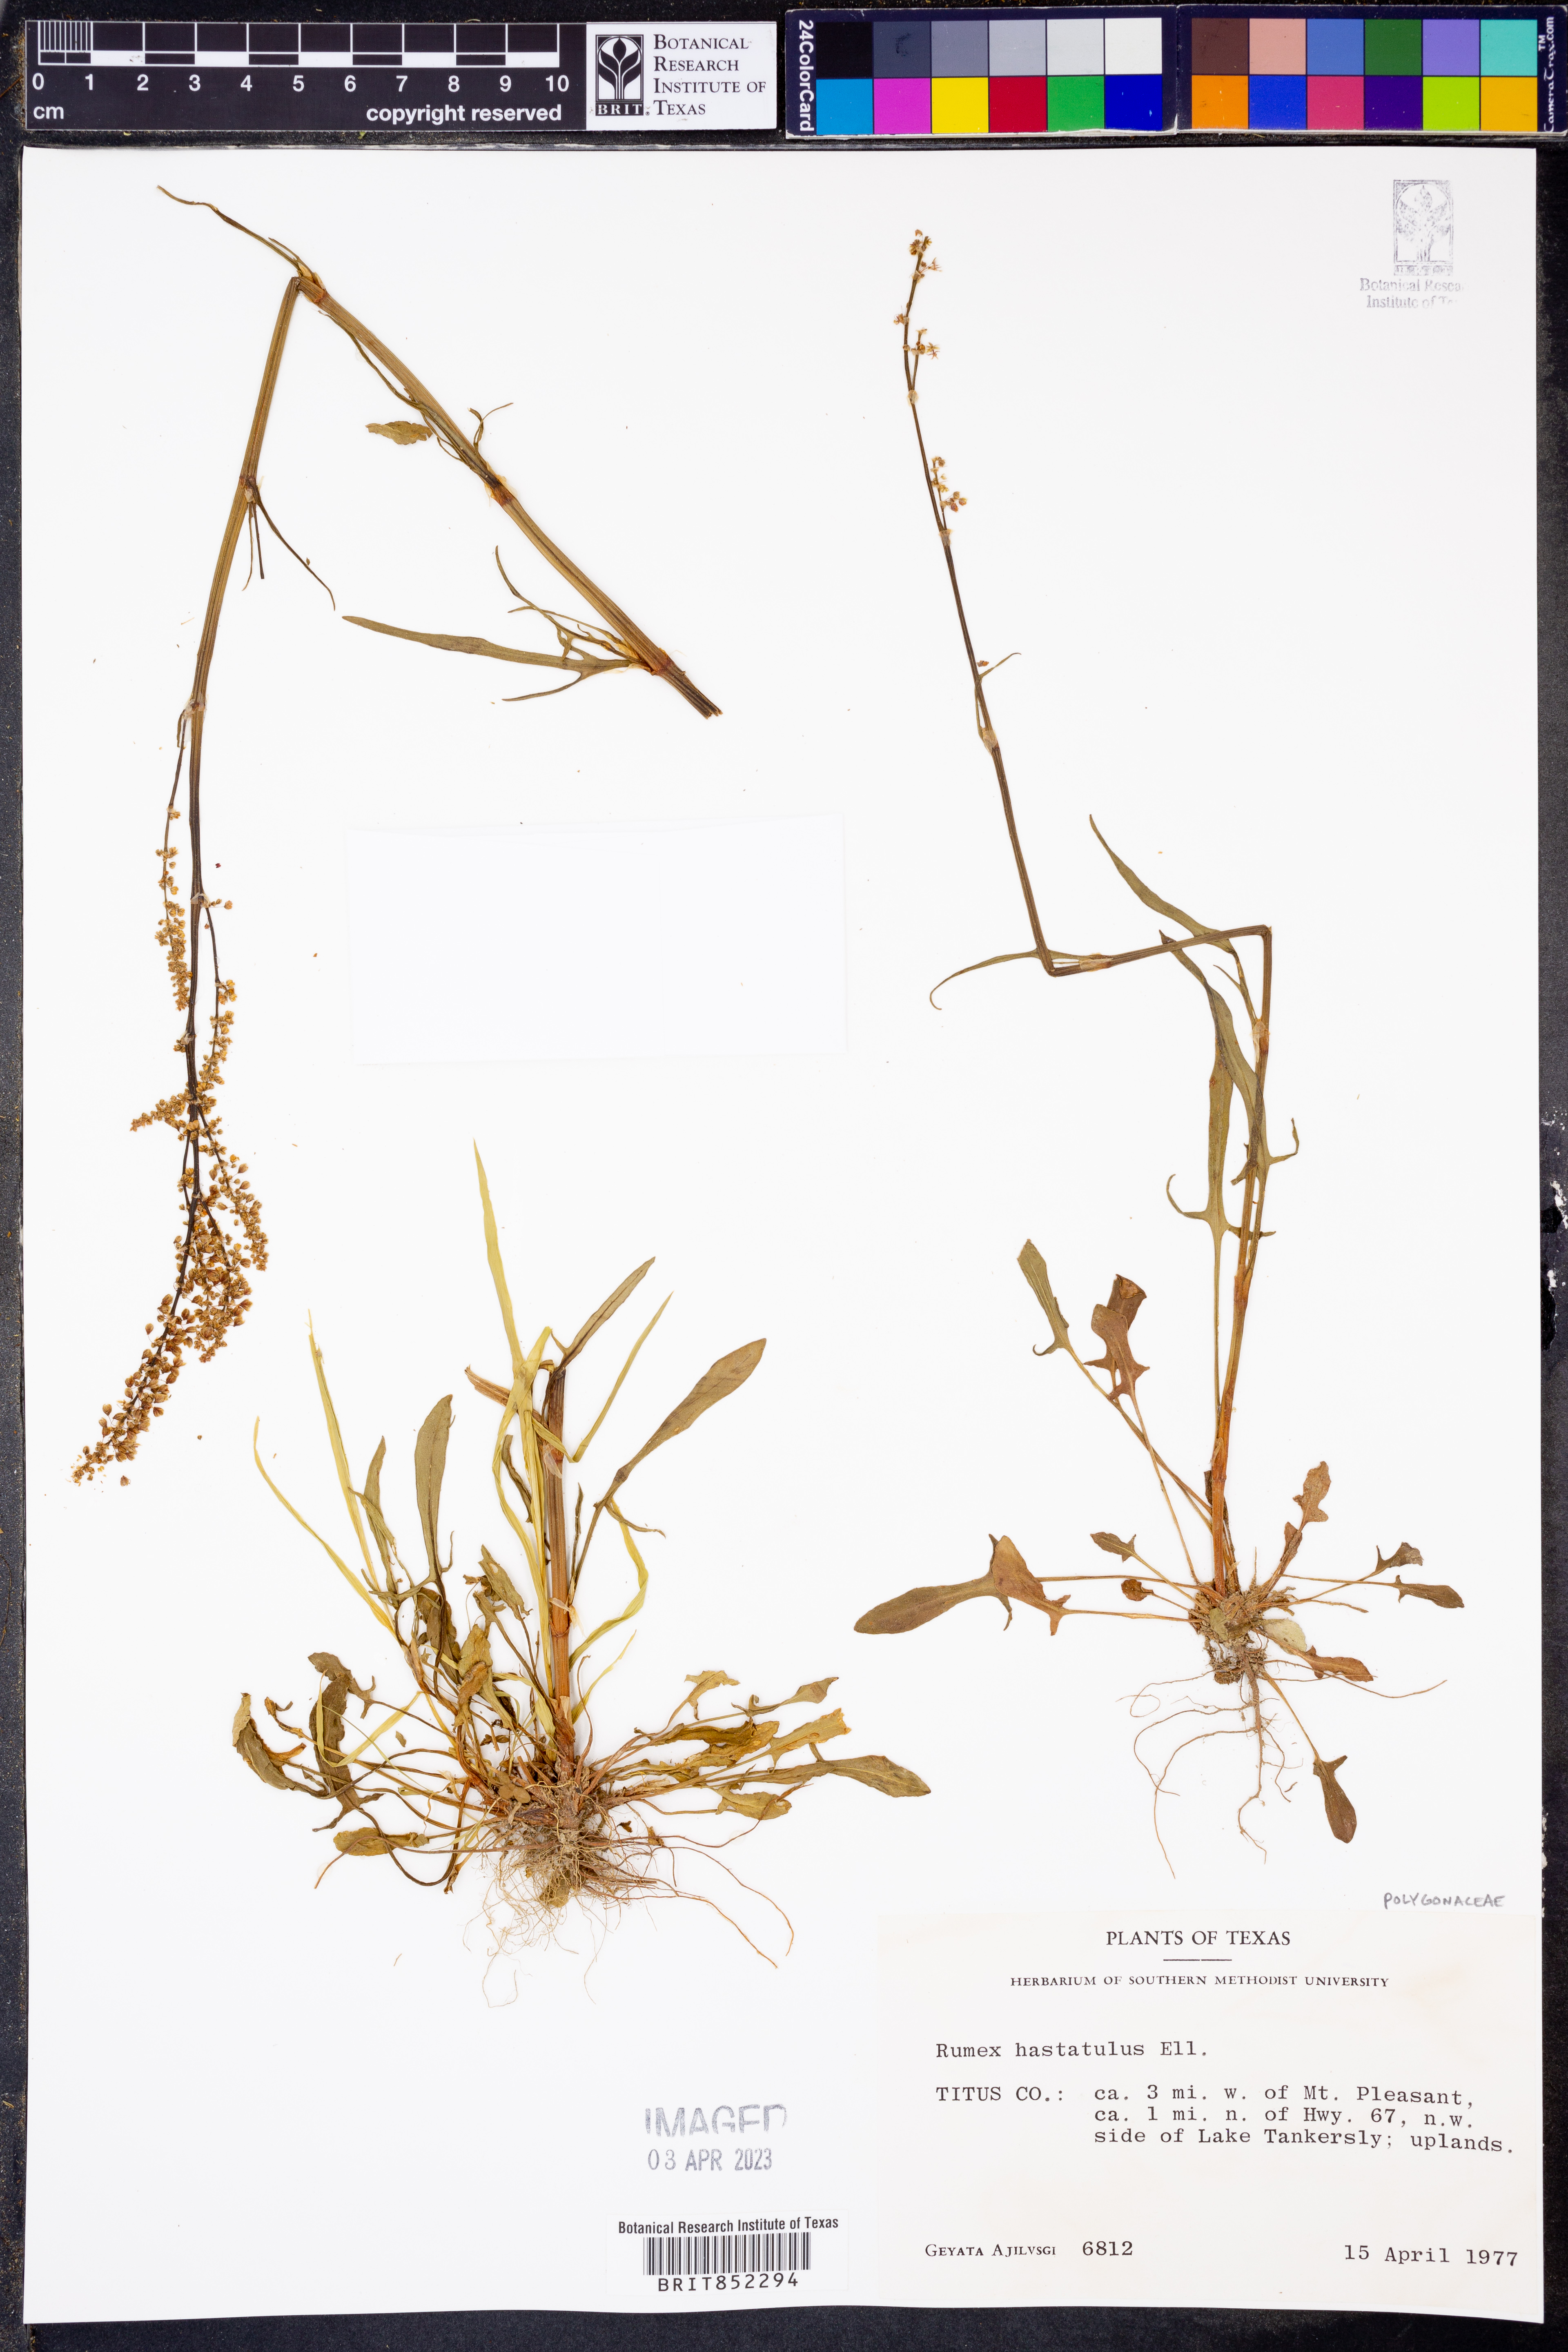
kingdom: Plantae
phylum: Tracheophyta
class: Magnoliopsida
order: Caryophyllales
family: Polygonaceae
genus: Rumex
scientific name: Rumex hastatulus
